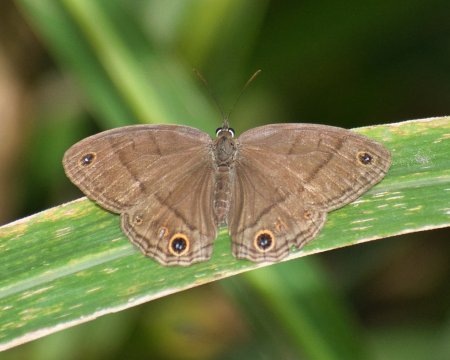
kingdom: Animalia
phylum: Arthropoda
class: Insecta
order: Lepidoptera
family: Nymphalidae
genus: Euptychia
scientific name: Euptychia Cissia pompilia
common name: Plain Satyr
